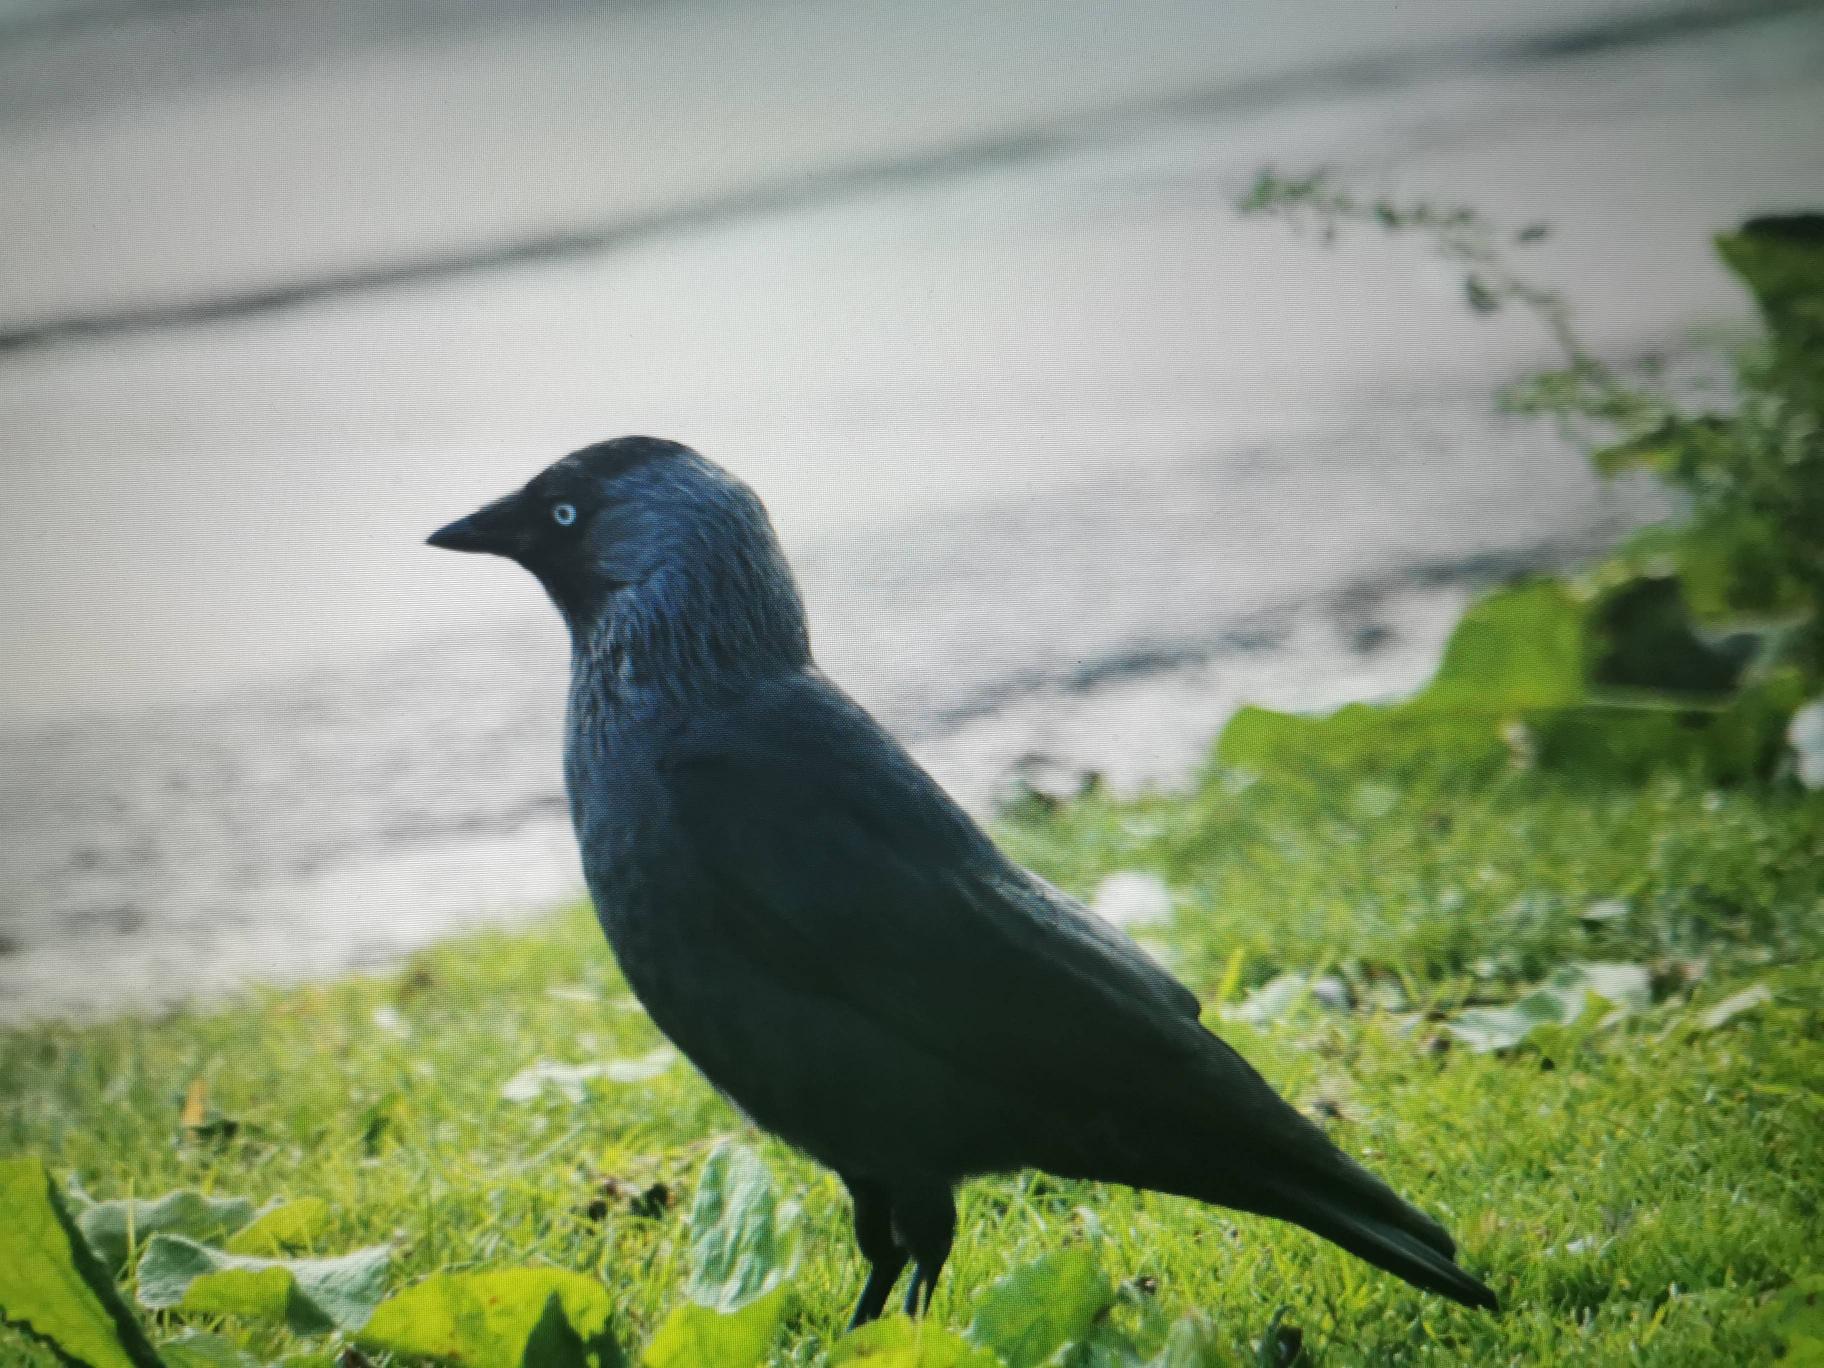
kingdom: Animalia
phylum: Chordata
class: Aves
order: Passeriformes
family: Corvidae
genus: Coloeus
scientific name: Coloeus monedula
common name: Allike
